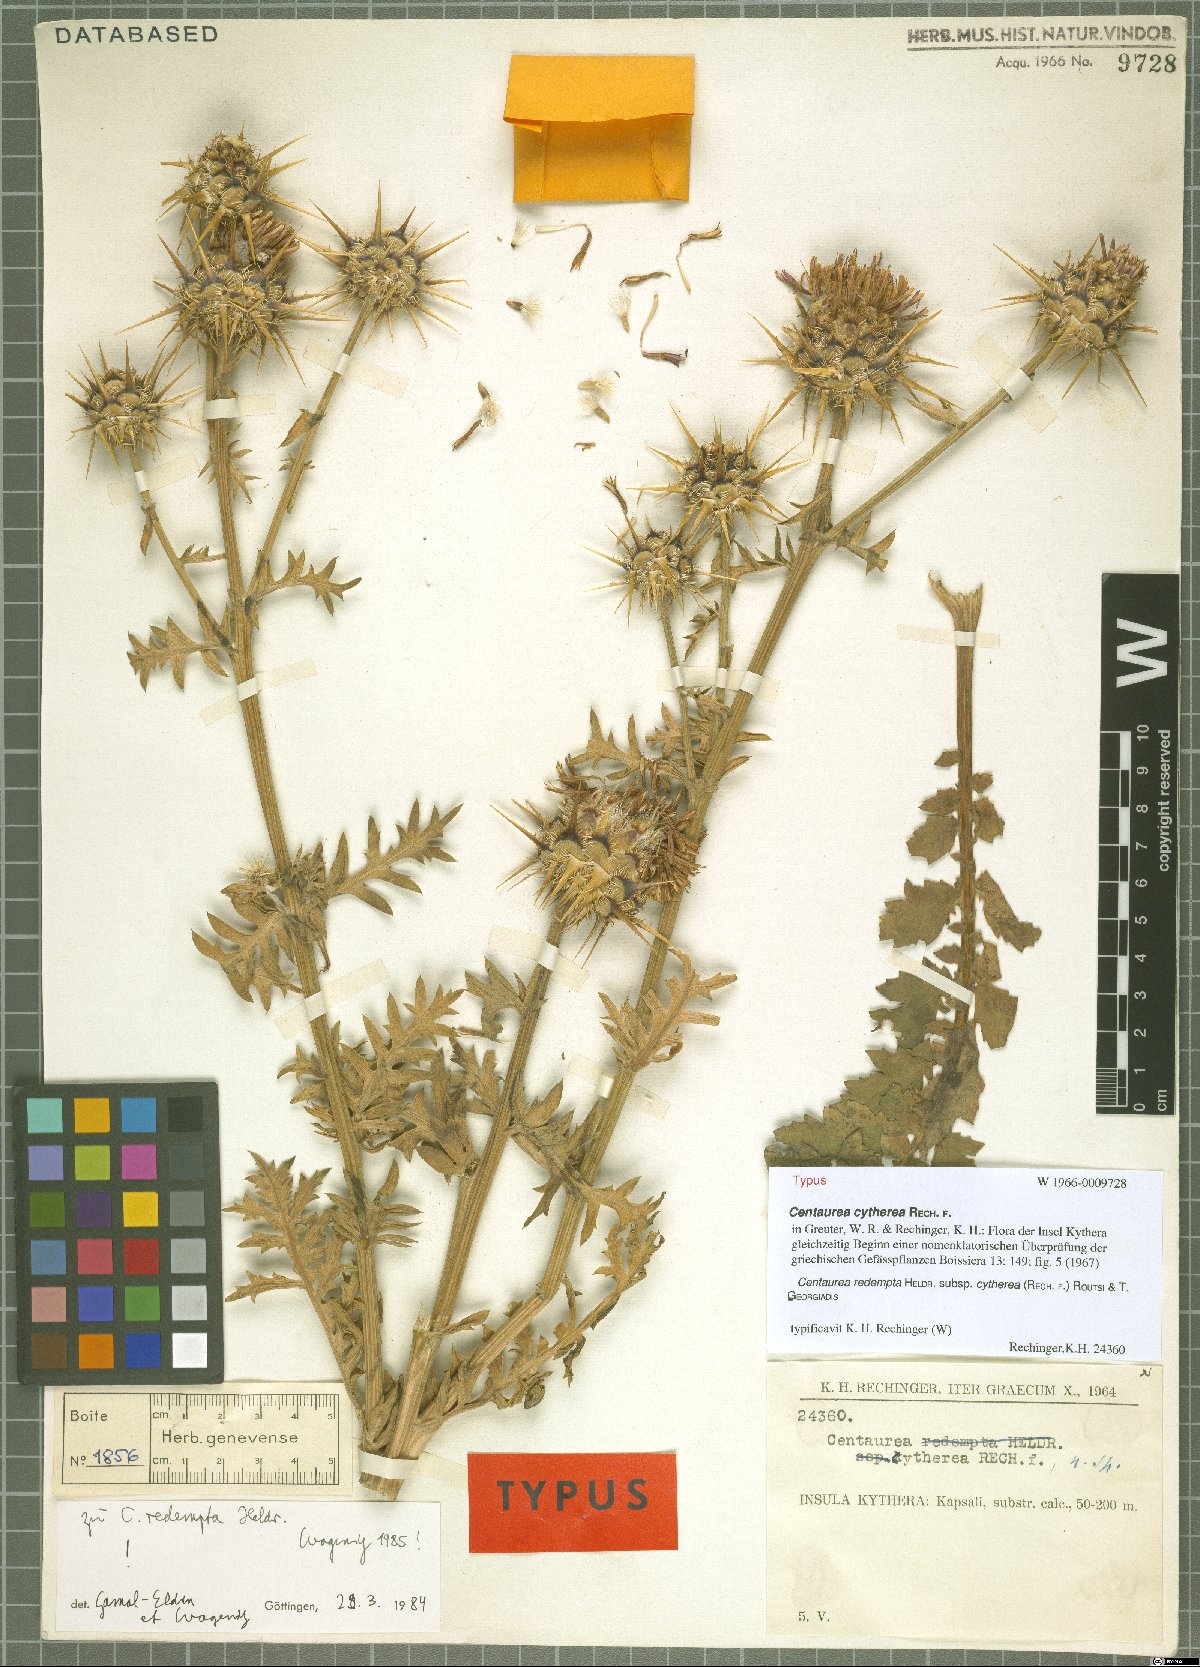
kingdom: Plantae
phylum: Tracheophyta
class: Magnoliopsida
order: Asterales
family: Asteraceae
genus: Centaurea
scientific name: Centaurea redempta
